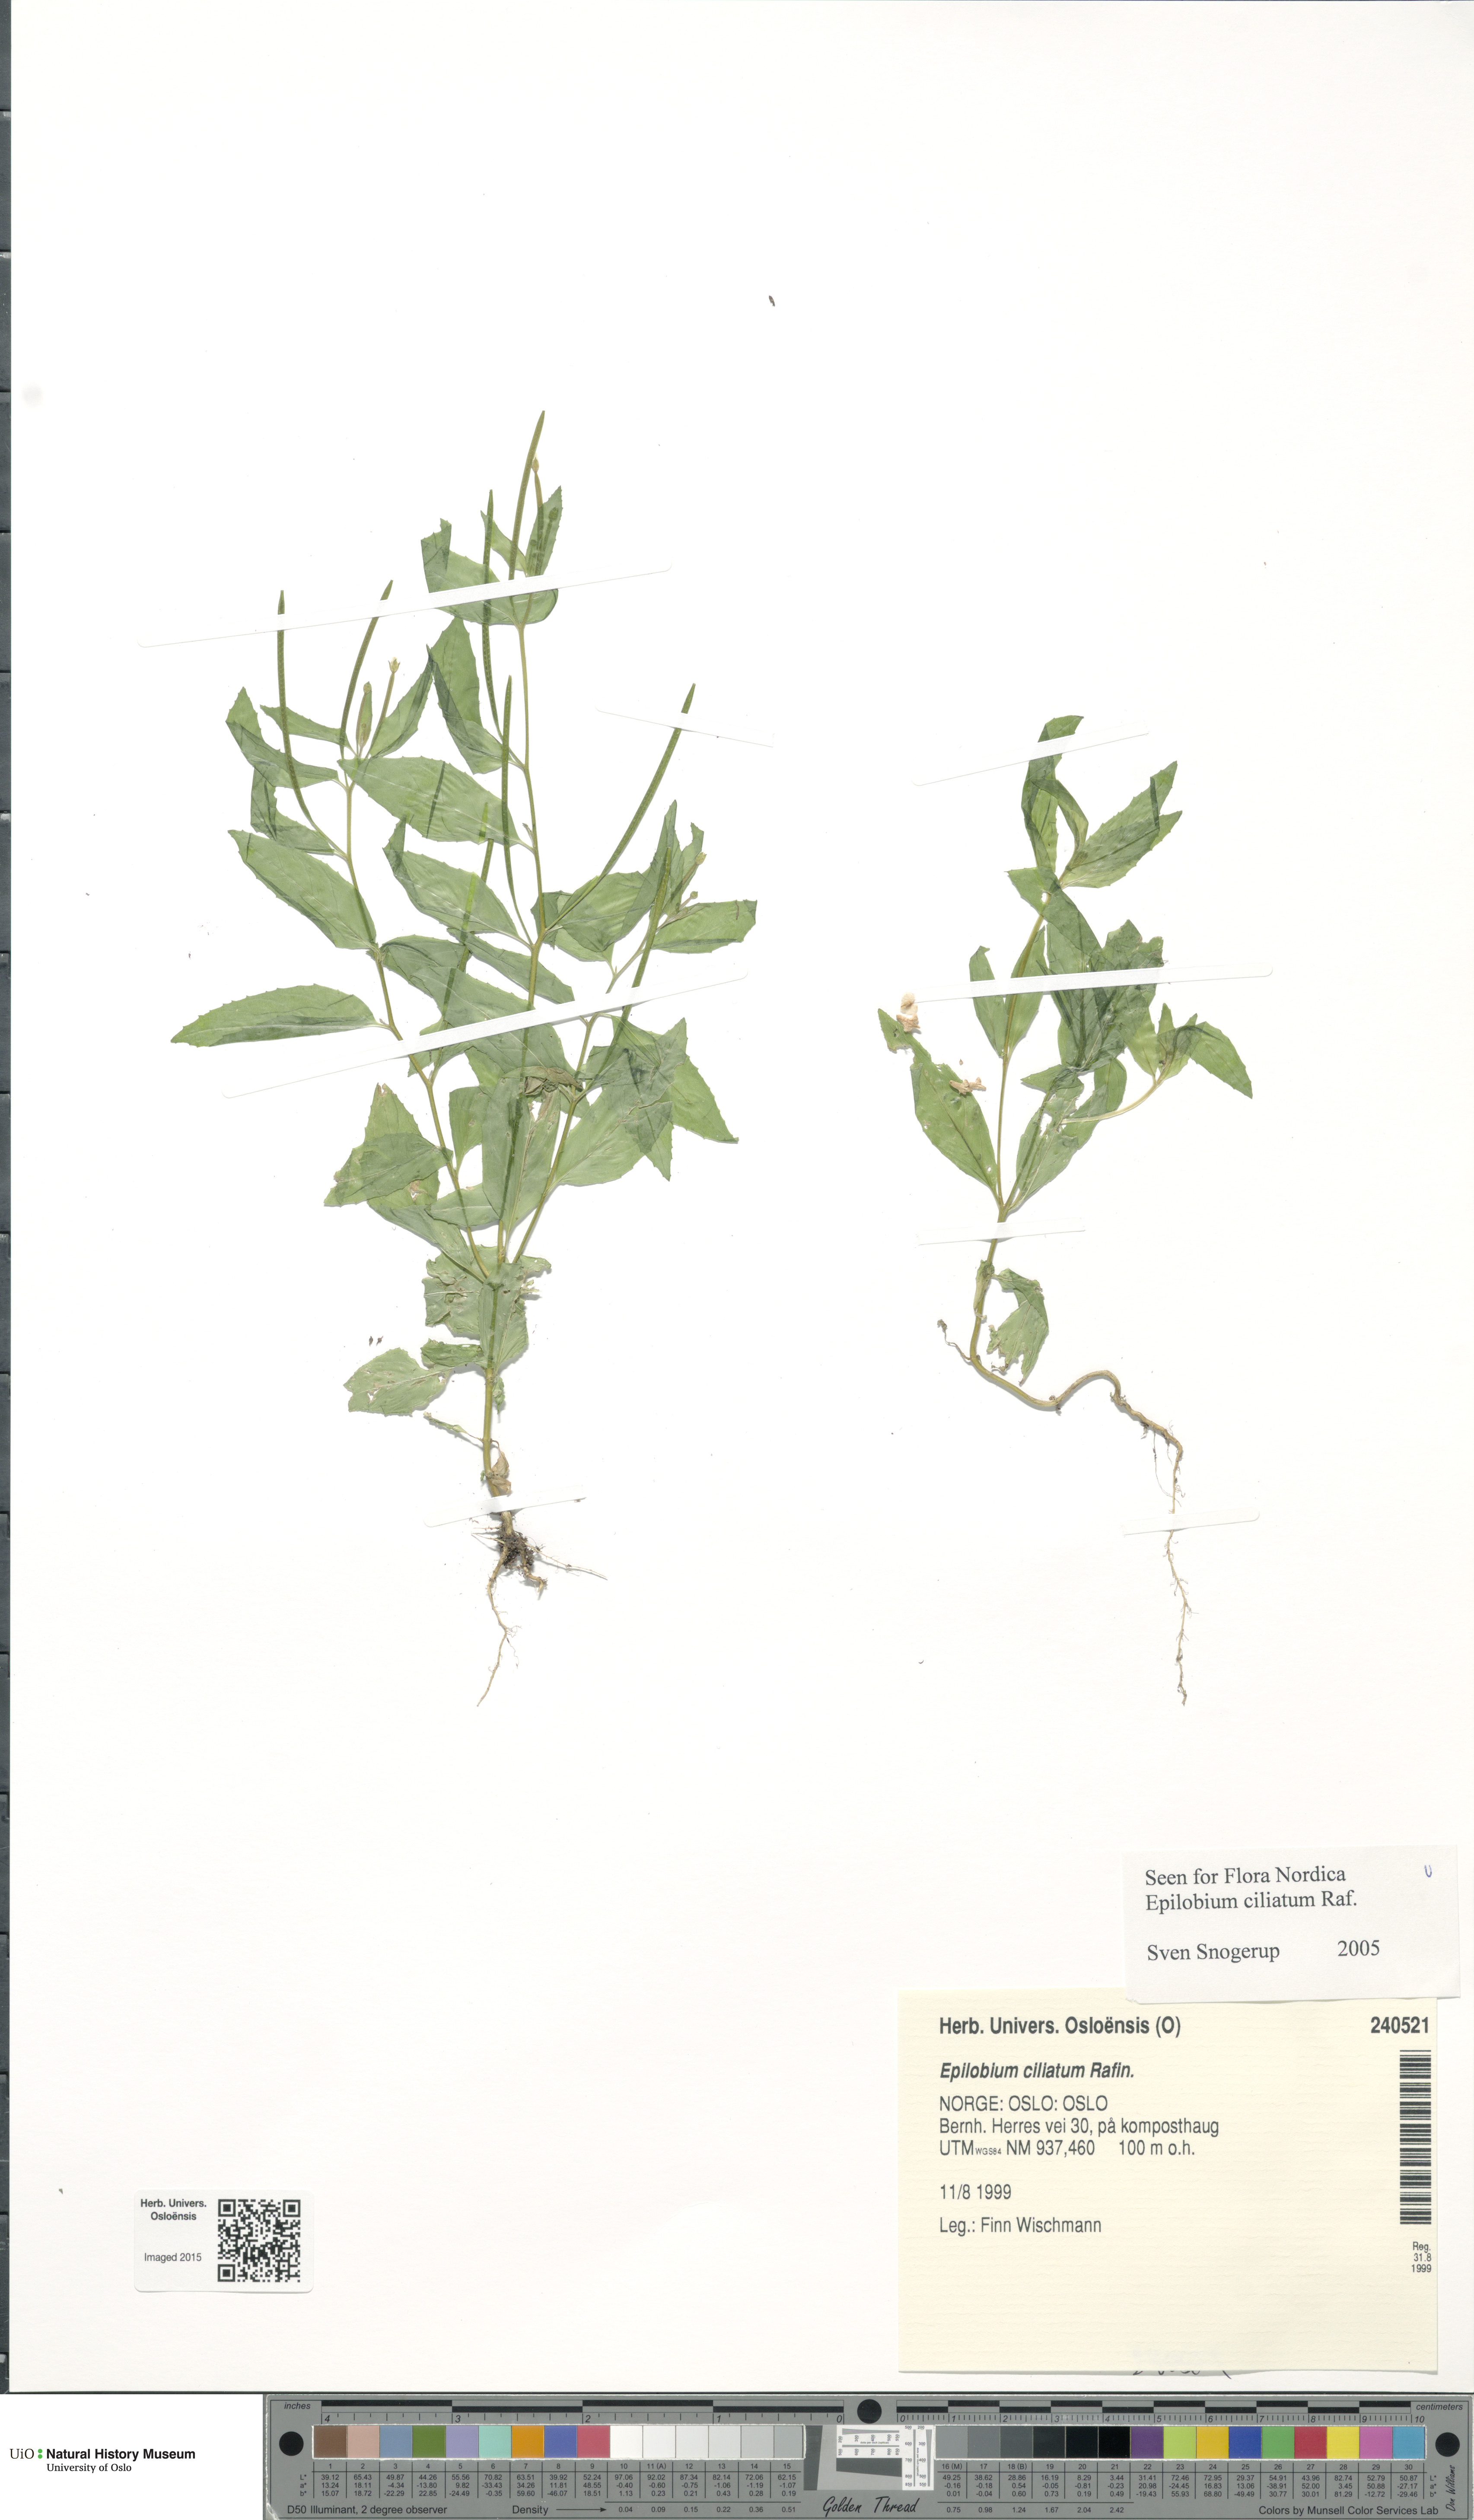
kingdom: Plantae
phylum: Tracheophyta
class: Magnoliopsida
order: Myrtales
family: Onagraceae
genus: Epilobium
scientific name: Epilobium ciliatum
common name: American willowherb
